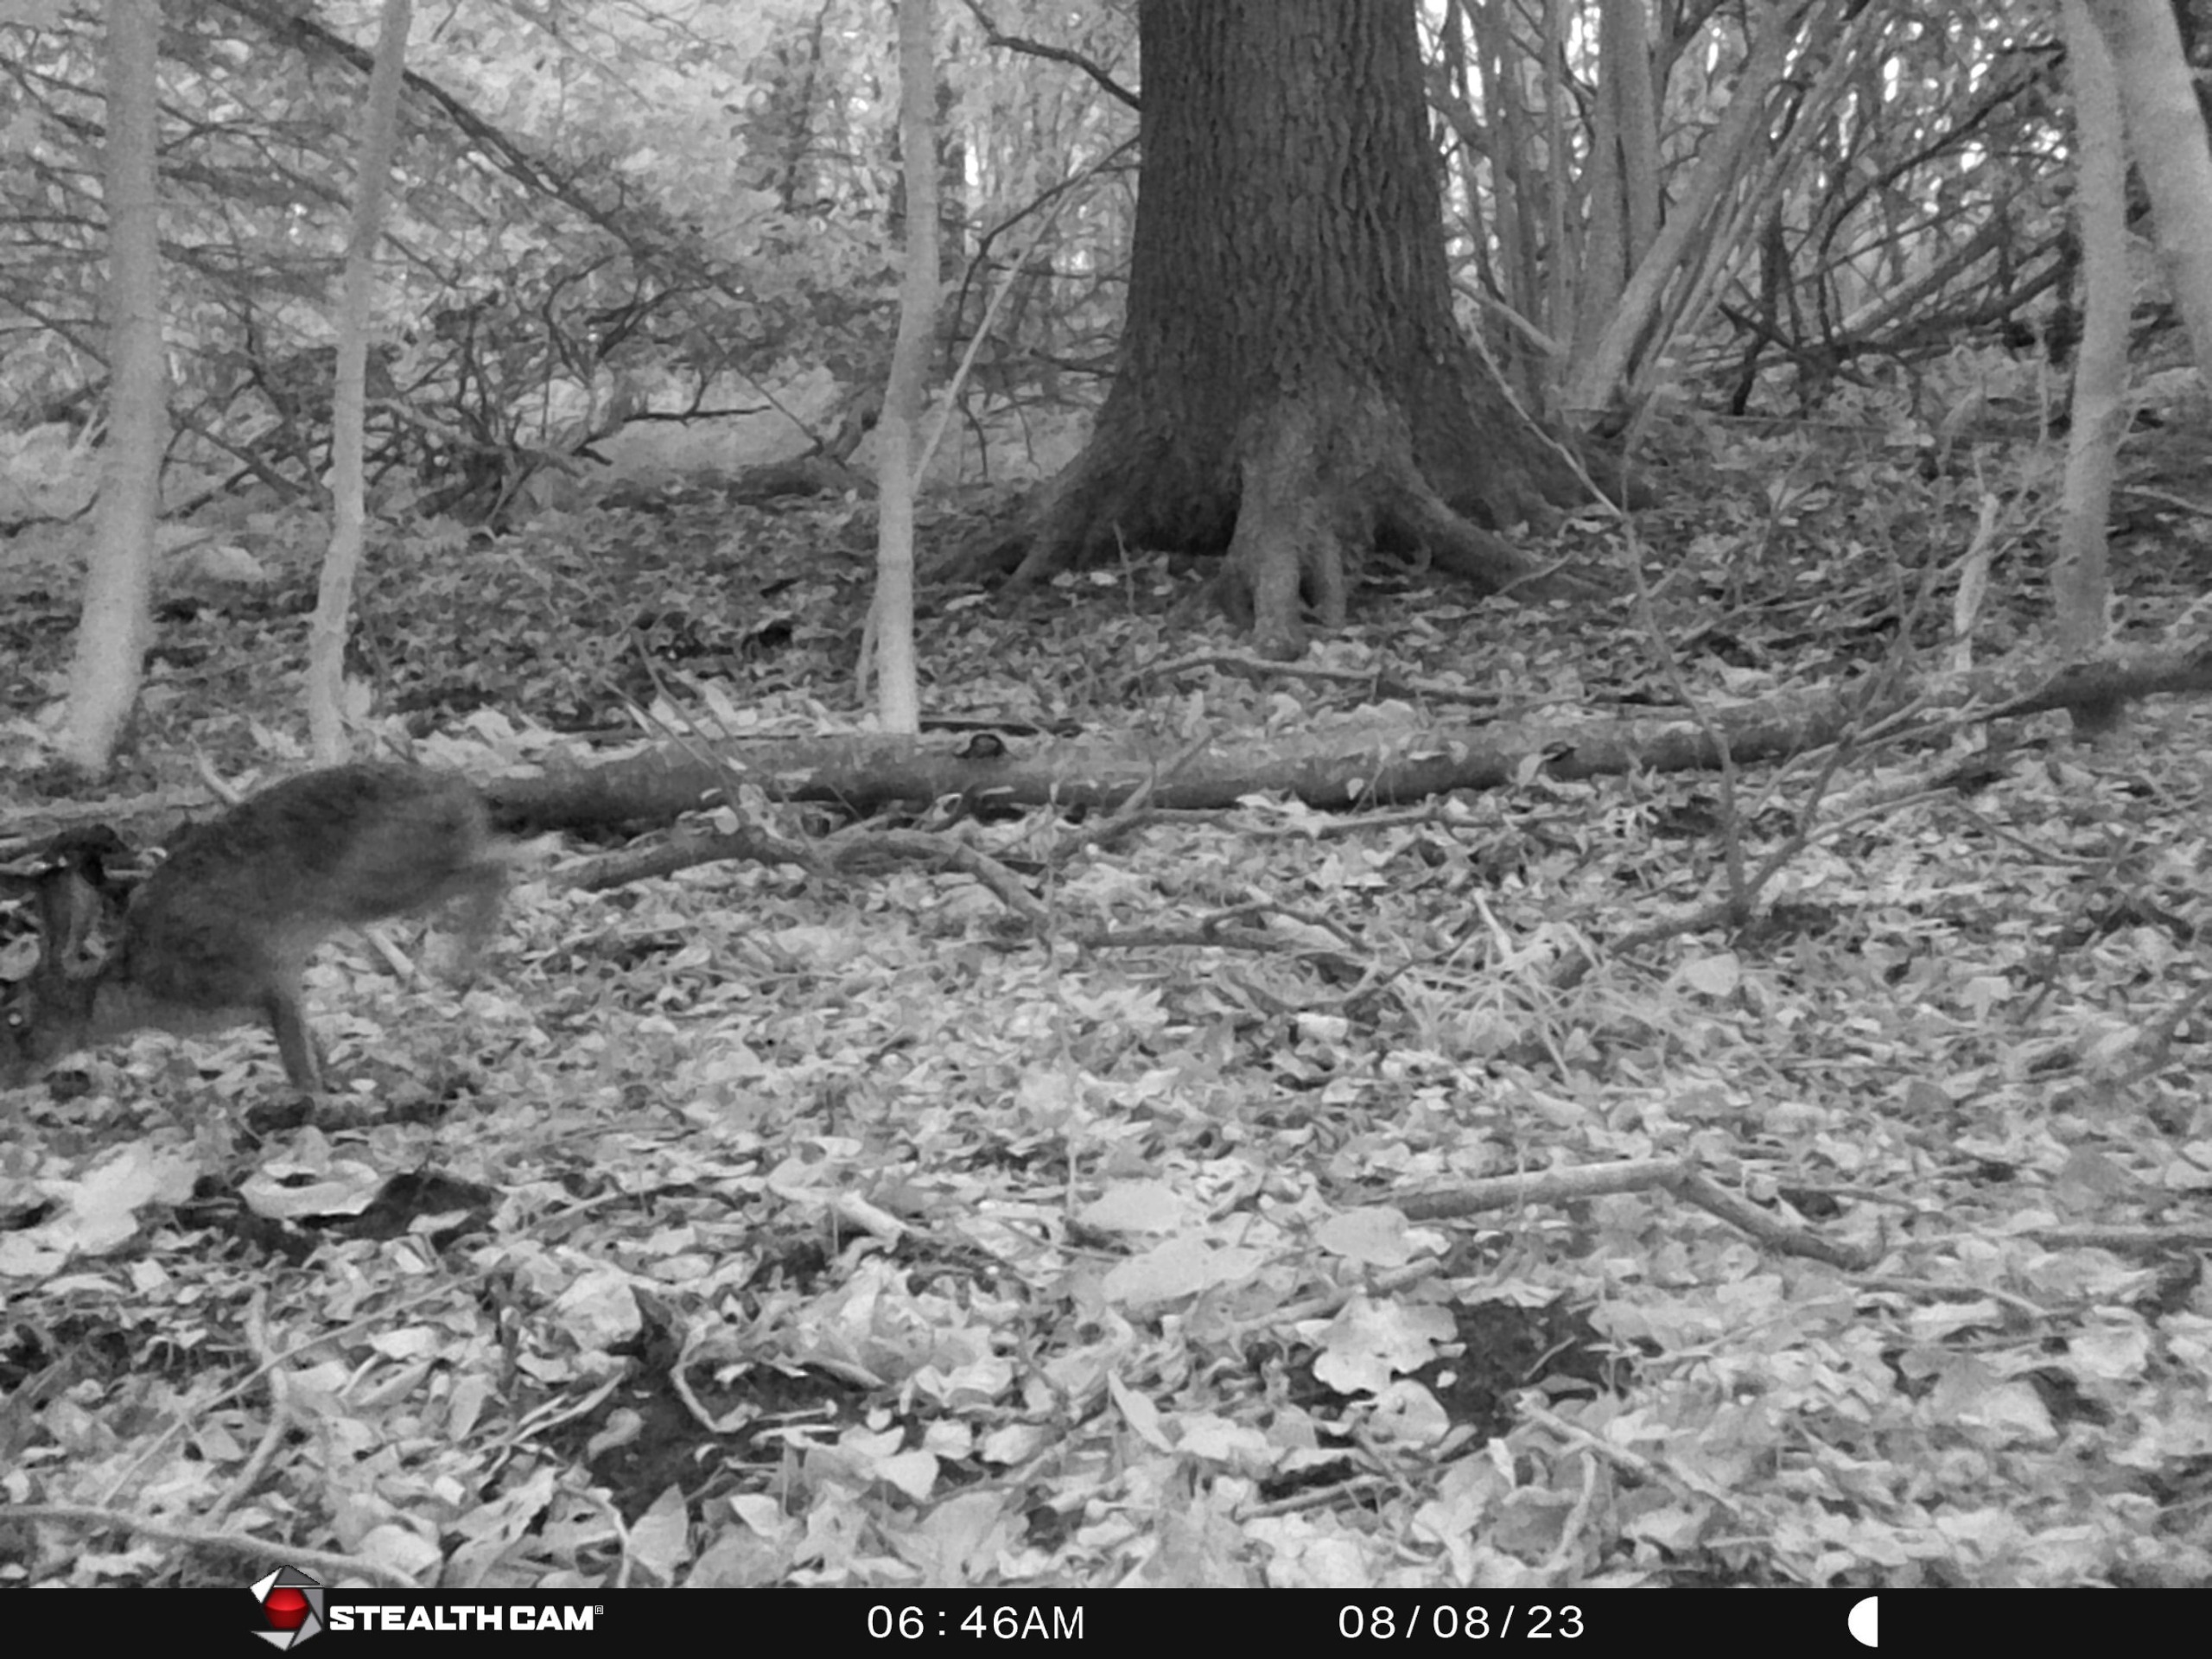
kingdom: Animalia
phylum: Chordata
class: Mammalia
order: Lagomorpha
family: Leporidae
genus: Lepus
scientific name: Lepus europaeus
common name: Hare
